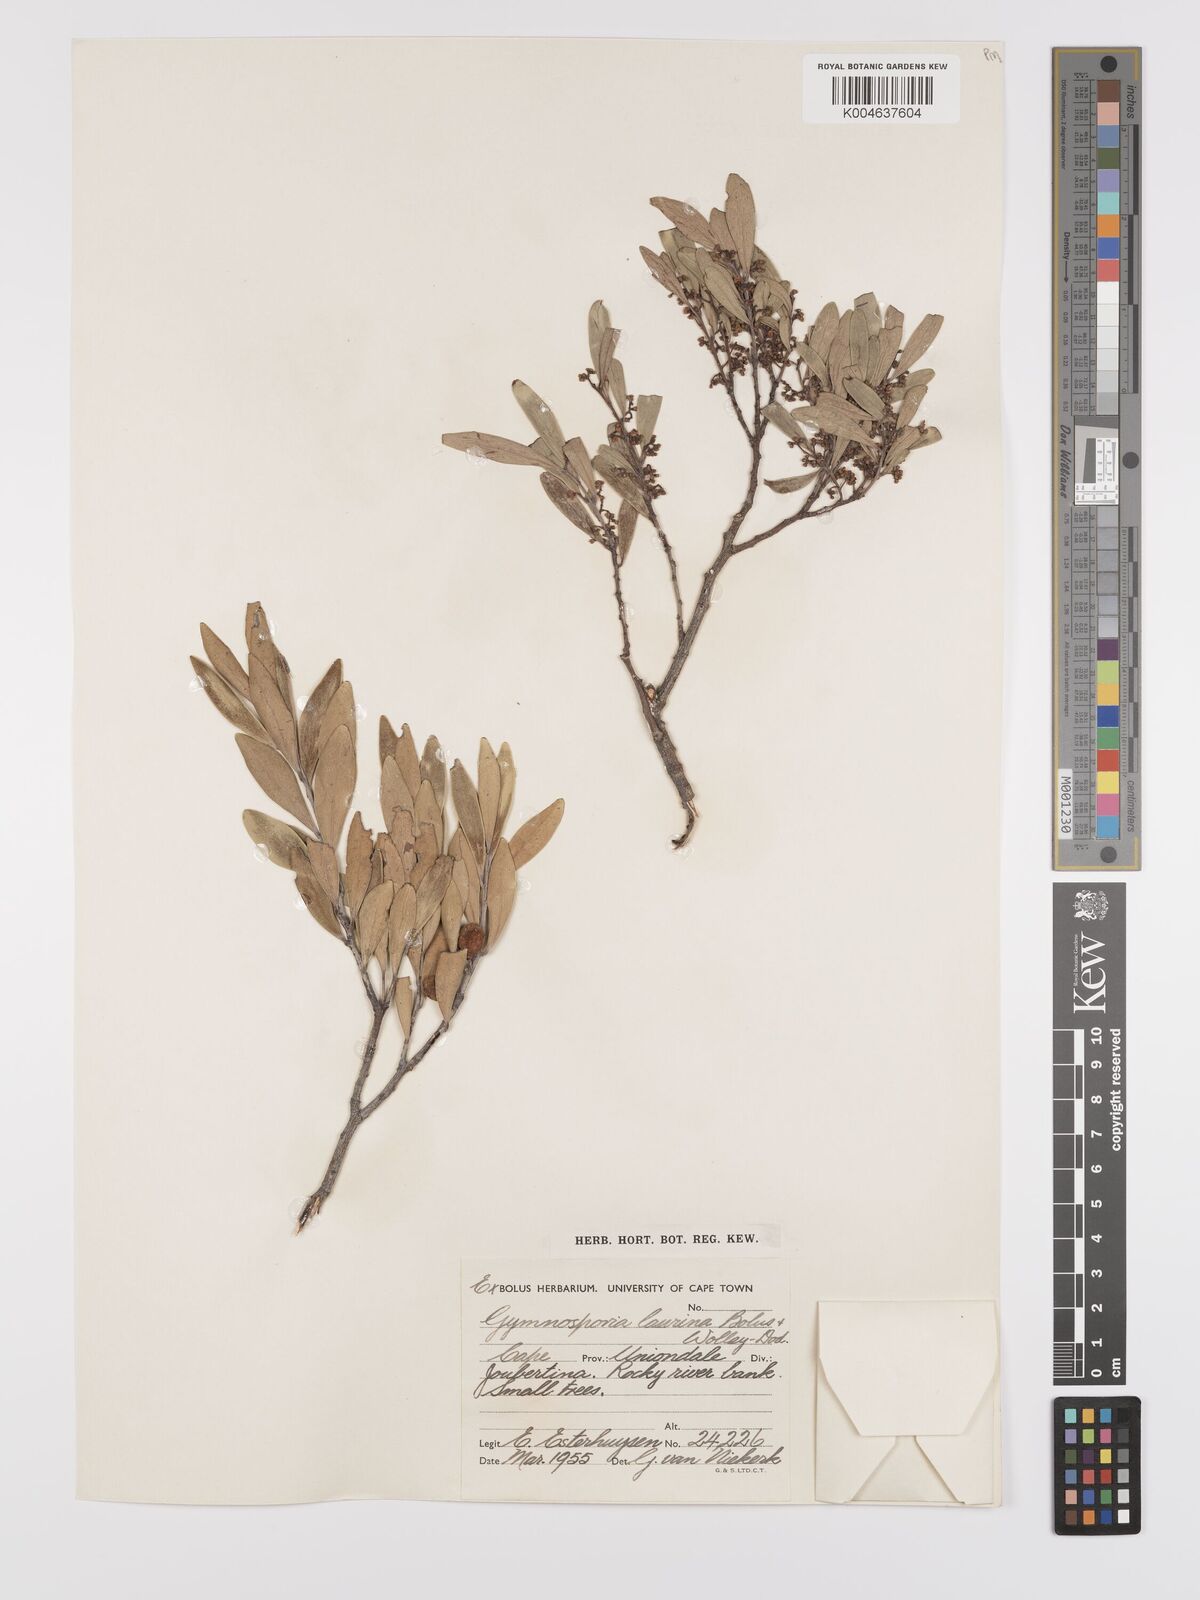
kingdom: Plantae
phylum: Tracheophyta
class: Magnoliopsida
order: Celastrales
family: Celastraceae
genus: Monteverdia
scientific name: Monteverdia laurina
